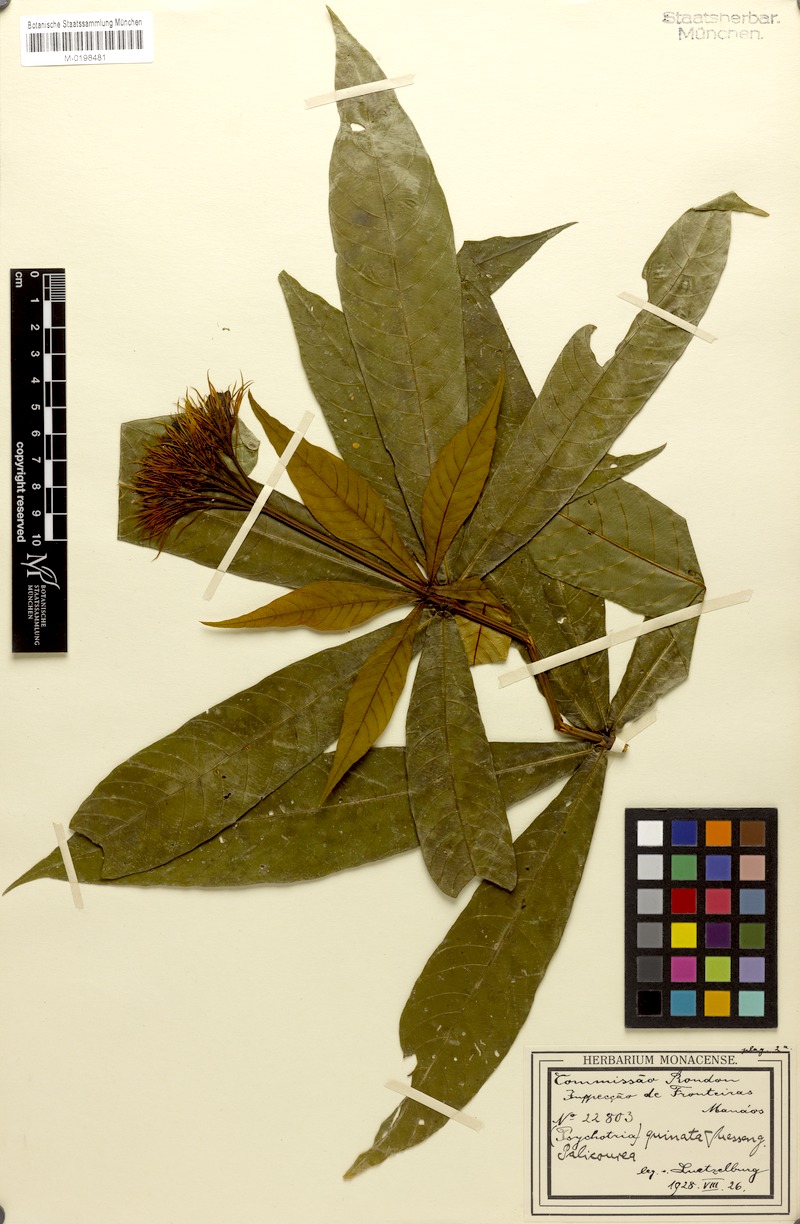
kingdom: Plantae
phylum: Tracheophyta
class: Magnoliopsida
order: Gentianales
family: Rubiaceae
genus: Palicourea
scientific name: Palicourea virens
